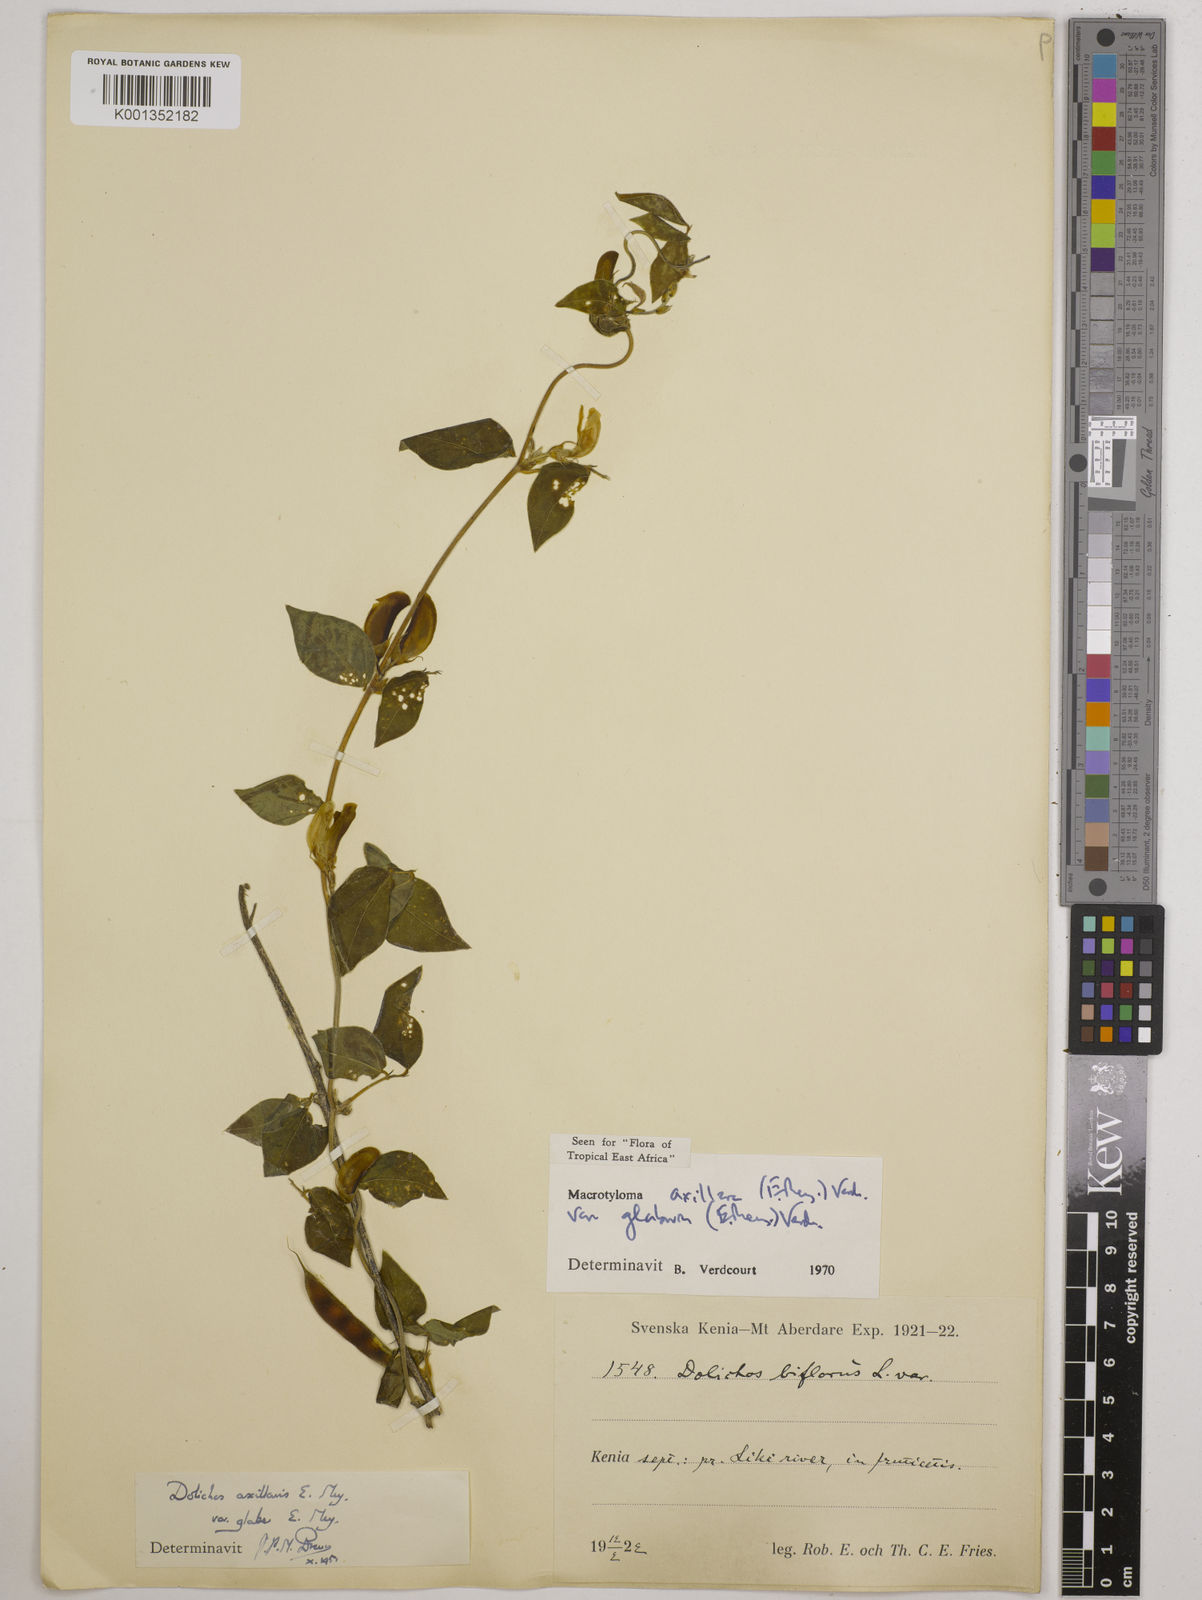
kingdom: Plantae
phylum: Tracheophyta
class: Magnoliopsida
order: Fabales
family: Fabaceae
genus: Macrotyloma
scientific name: Macrotyloma
